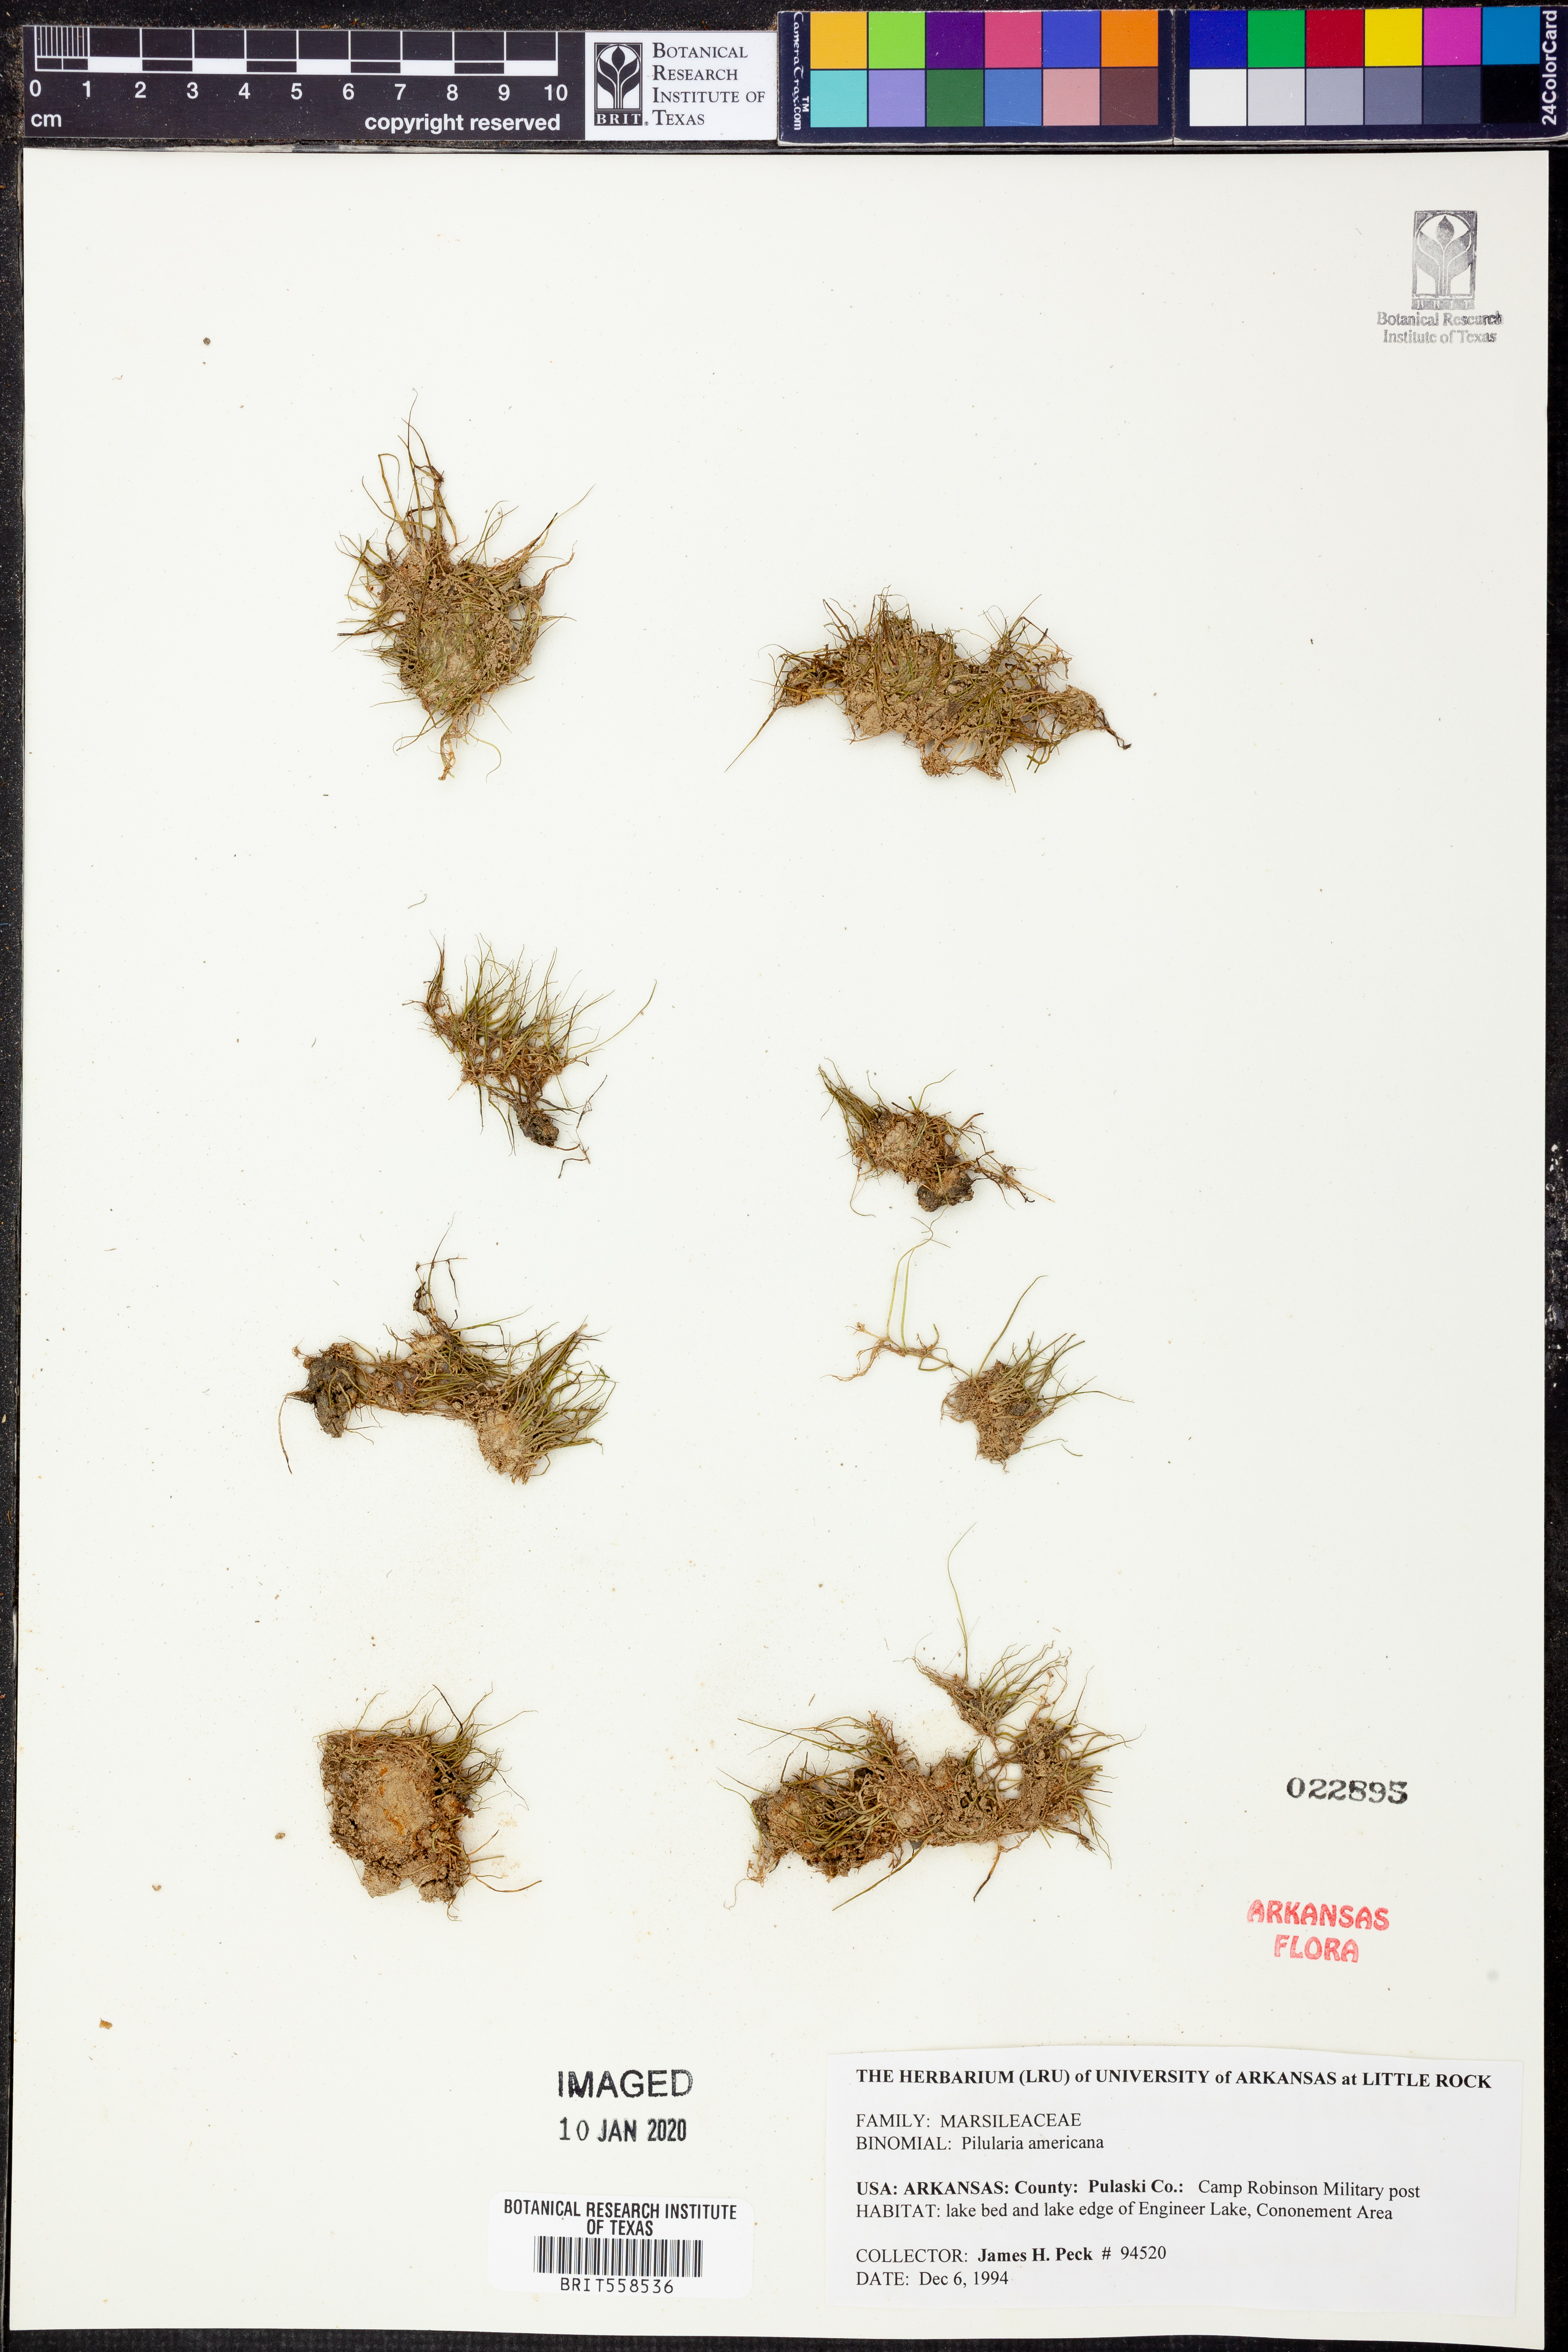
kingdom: Plantae
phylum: Tracheophyta
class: Polypodiopsida
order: Salviniales
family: Marsileaceae
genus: Pilularia
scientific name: Pilularia americana
